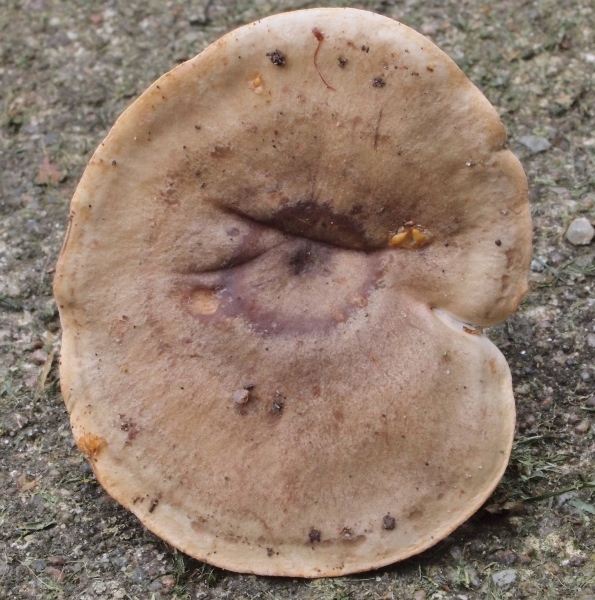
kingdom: Fungi
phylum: Basidiomycota
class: Agaricomycetes
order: Russulales
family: Russulaceae
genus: Lactarius
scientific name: Lactarius fluens
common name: lysrandet mælkehat
